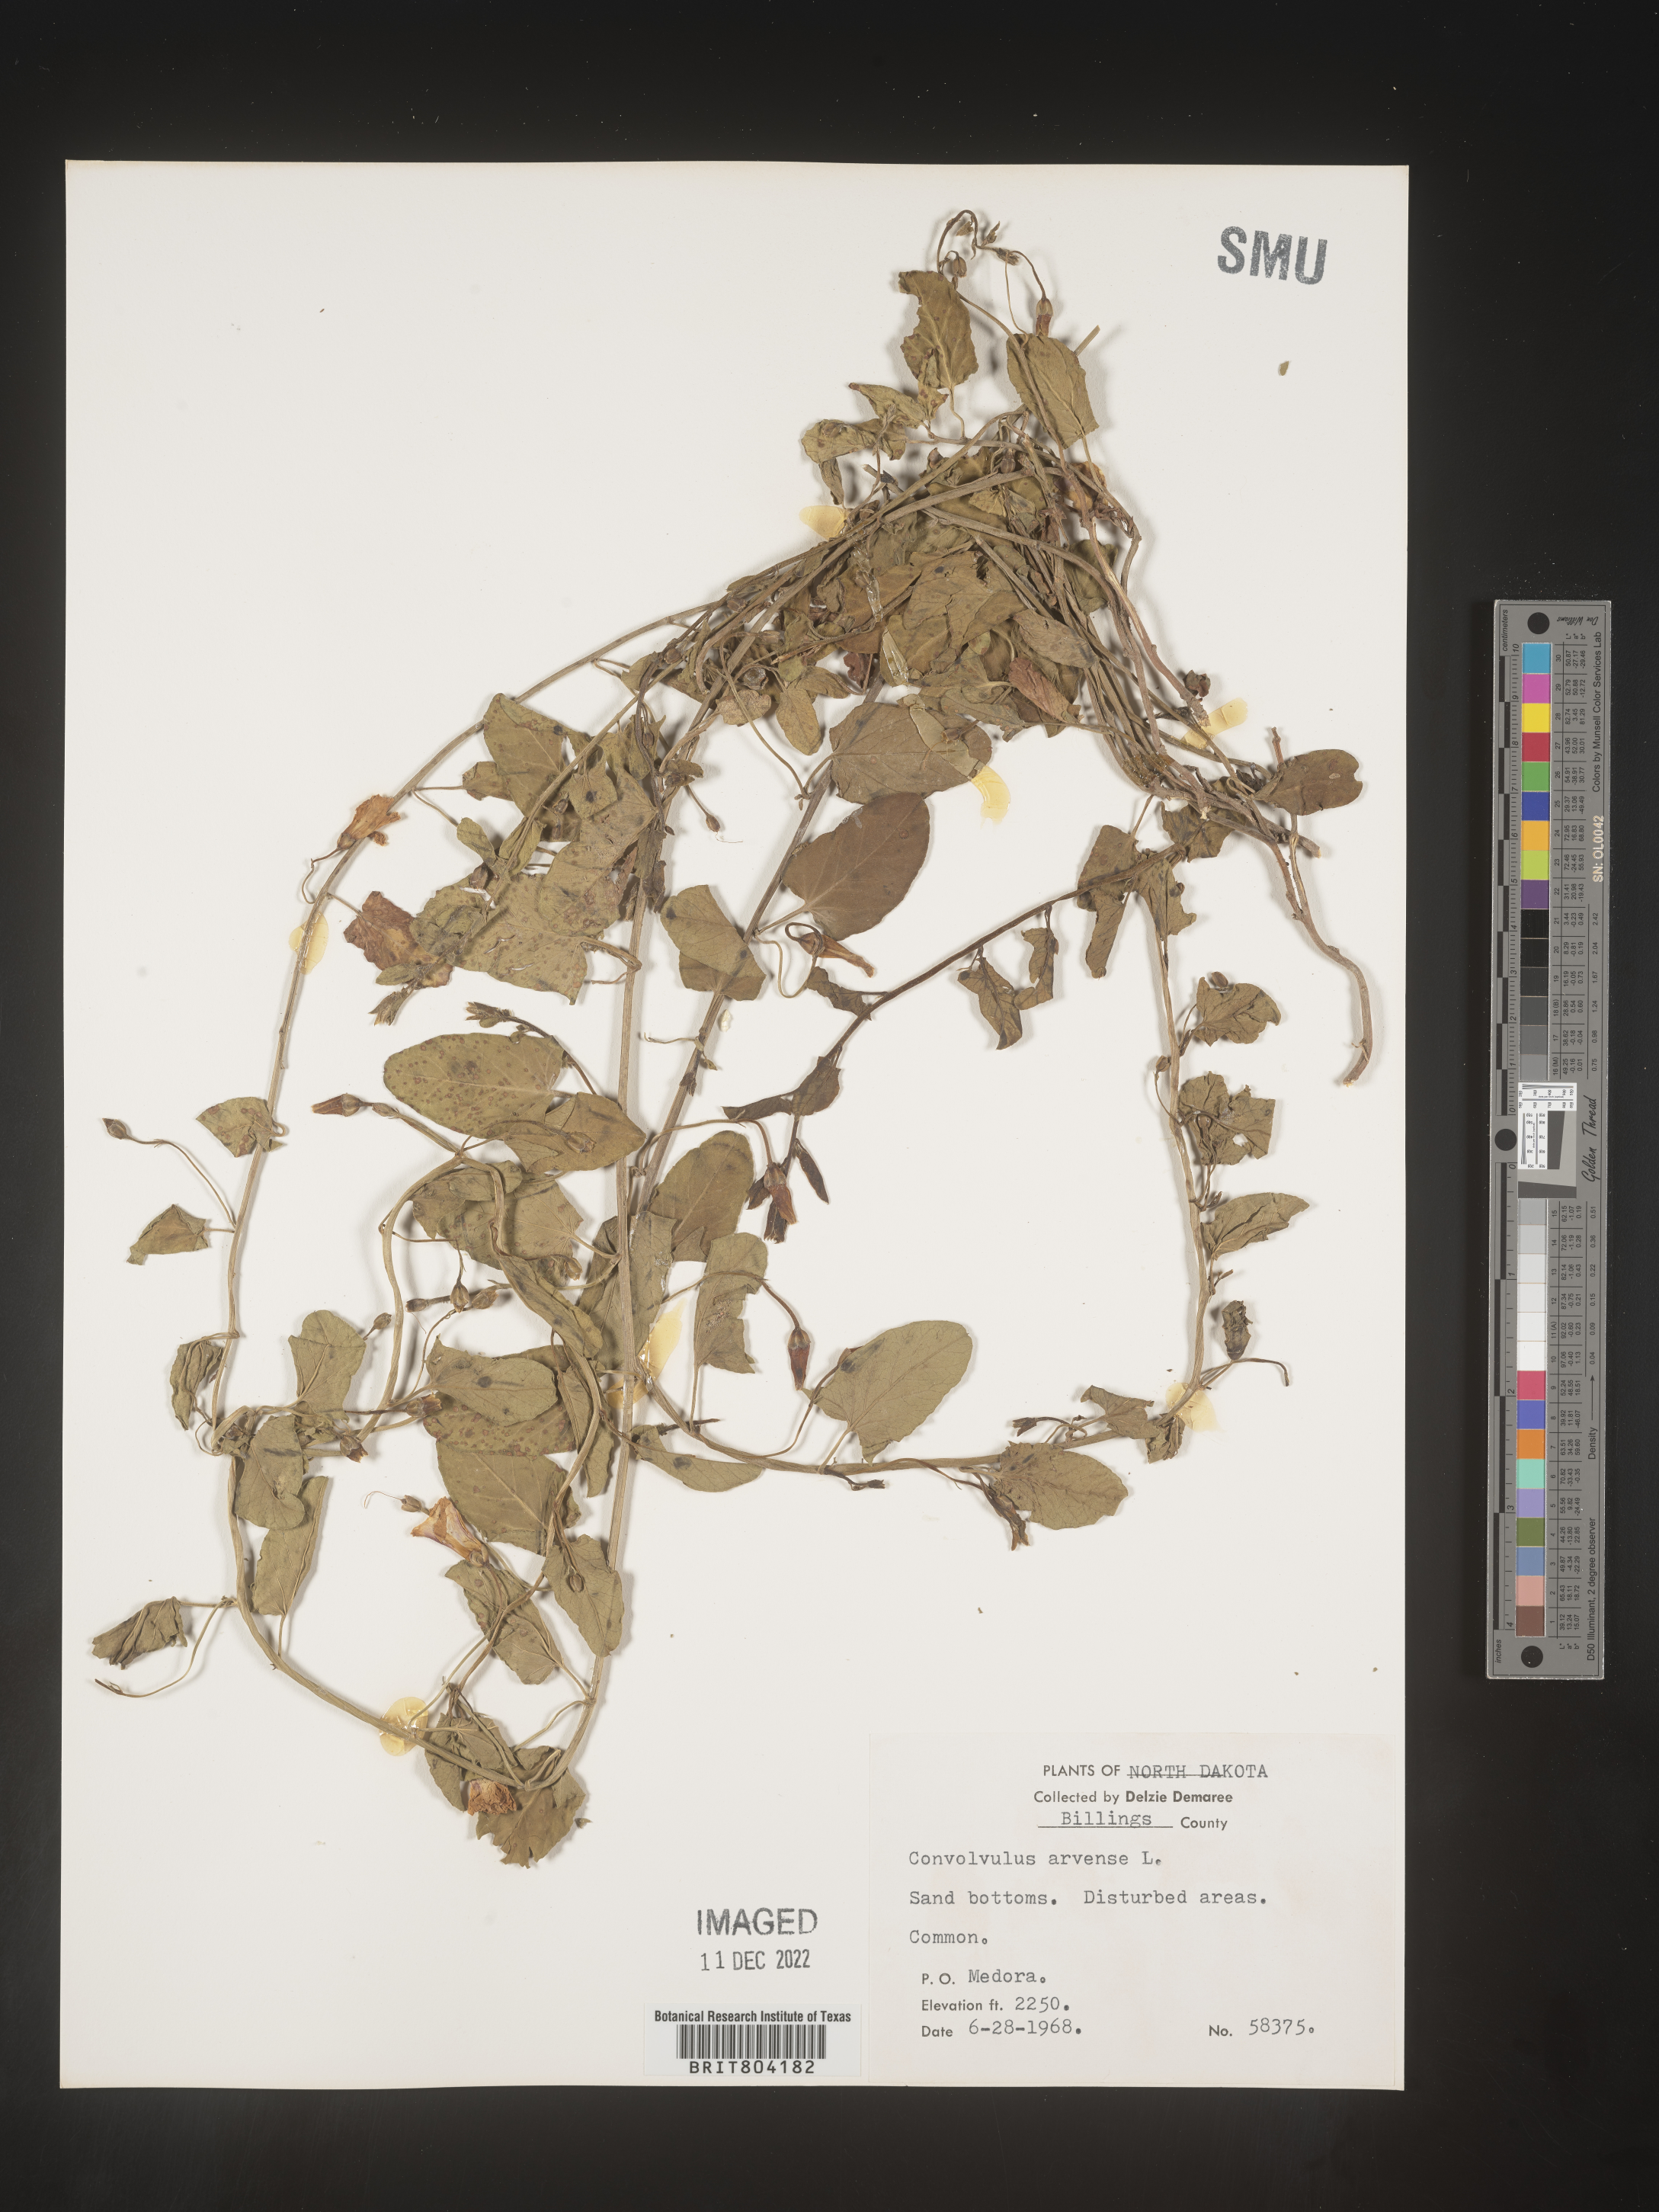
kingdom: Plantae
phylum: Tracheophyta
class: Magnoliopsida
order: Solanales
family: Convolvulaceae
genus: Convolvulus
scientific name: Convolvulus arvensis
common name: Field bindweed
